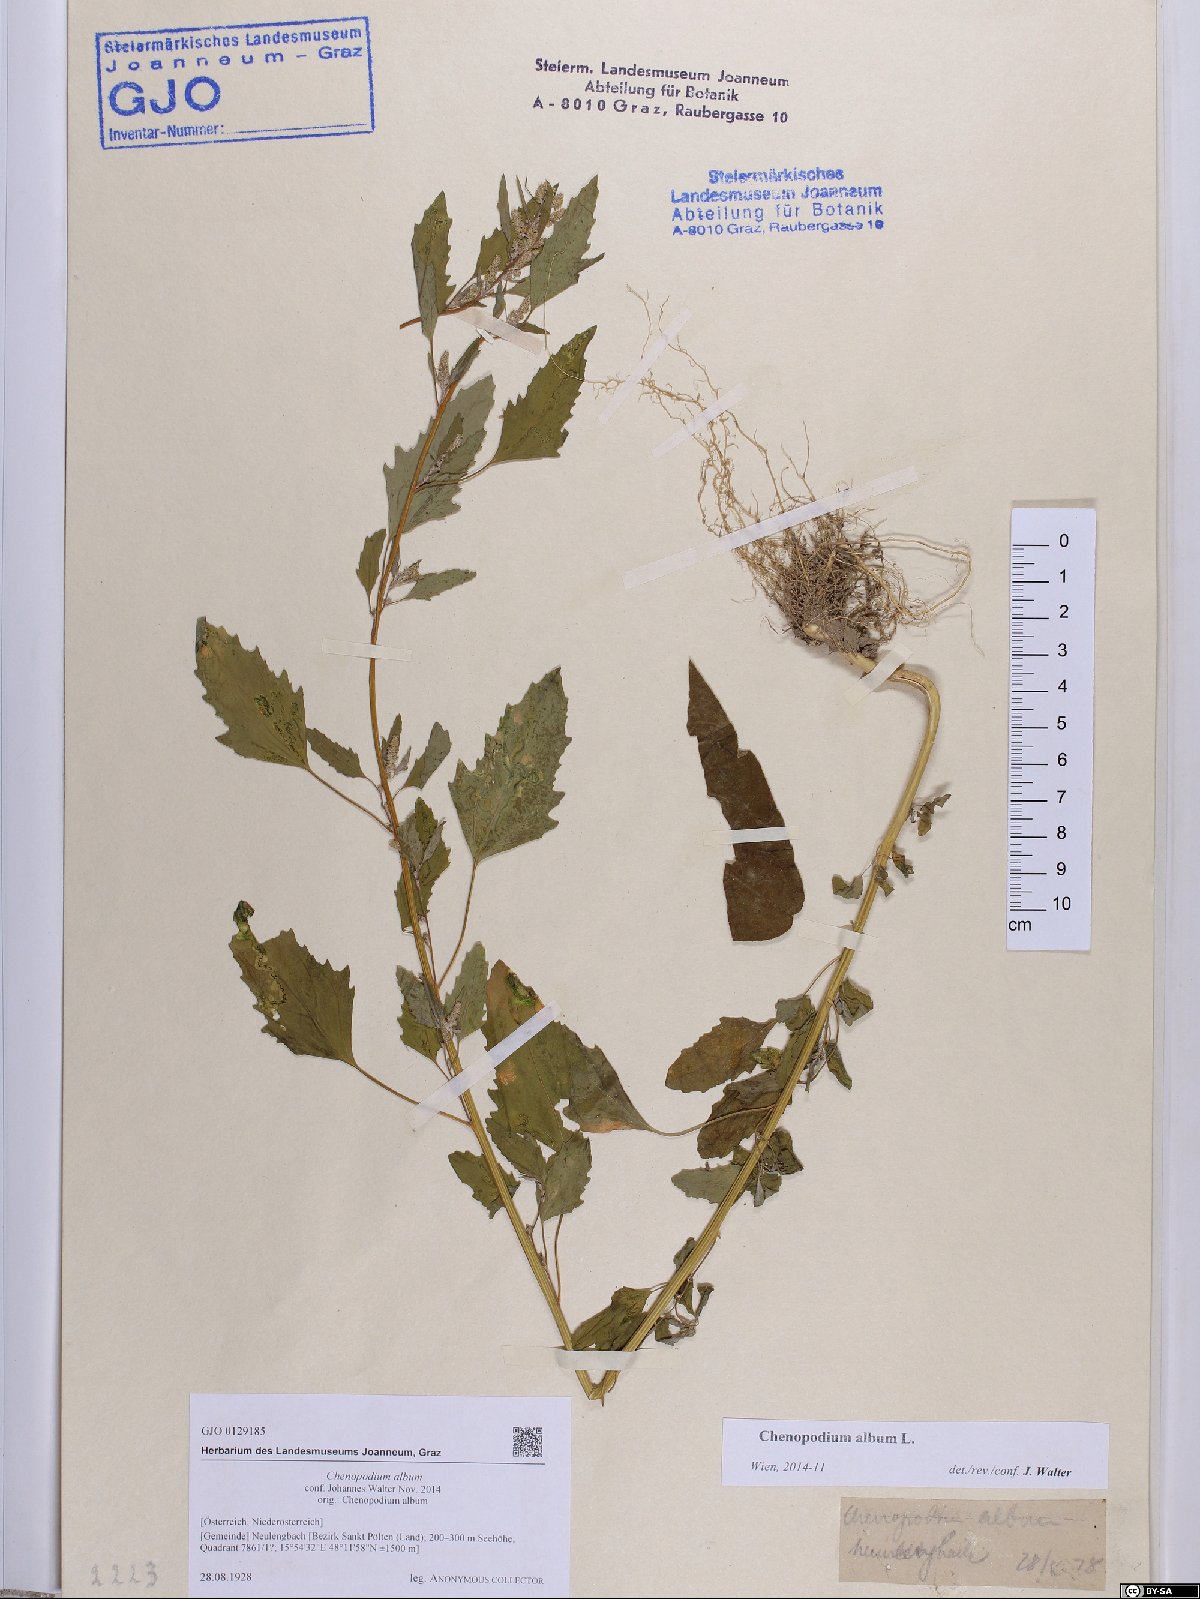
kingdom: Plantae
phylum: Tracheophyta
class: Magnoliopsida
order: Caryophyllales
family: Amaranthaceae
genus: Chenopodium
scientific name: Chenopodium album
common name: Fat-hen
